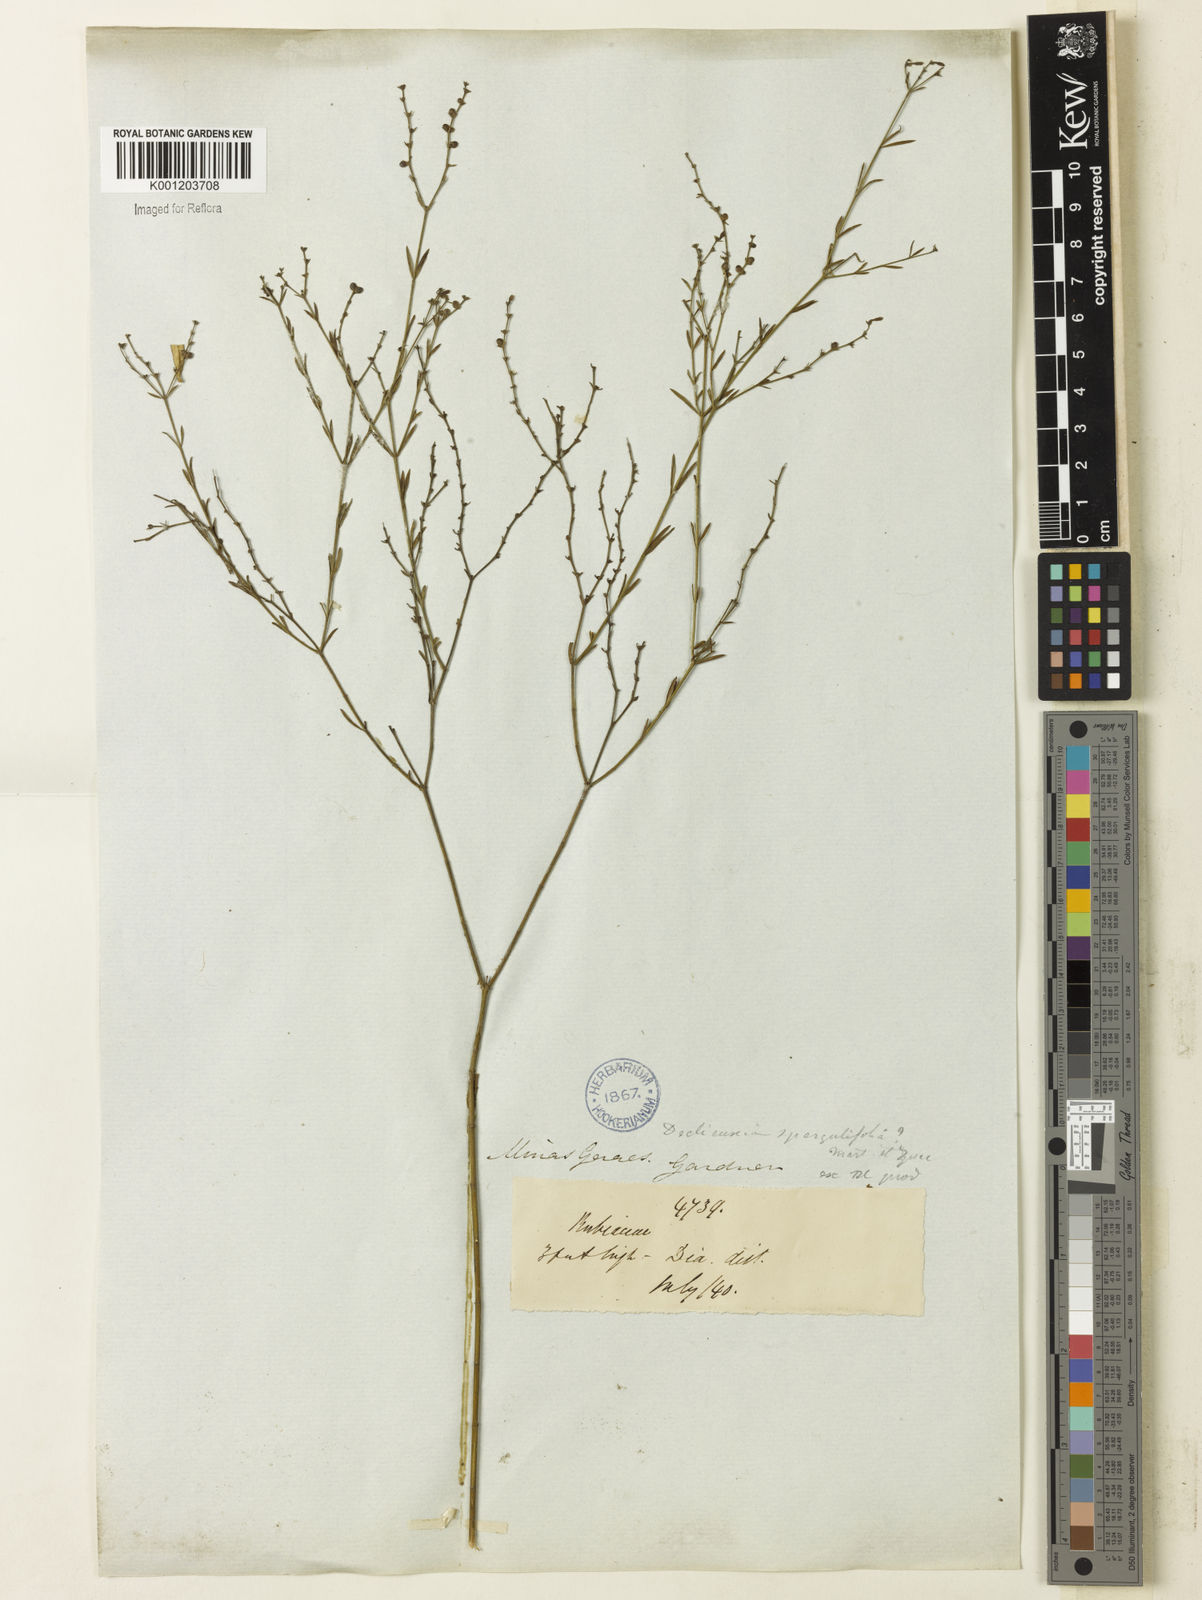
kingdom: Plantae
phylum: Tracheophyta
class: Magnoliopsida
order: Gentianales
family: Rubiaceae
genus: Declieuxia
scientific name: Declieuxia
